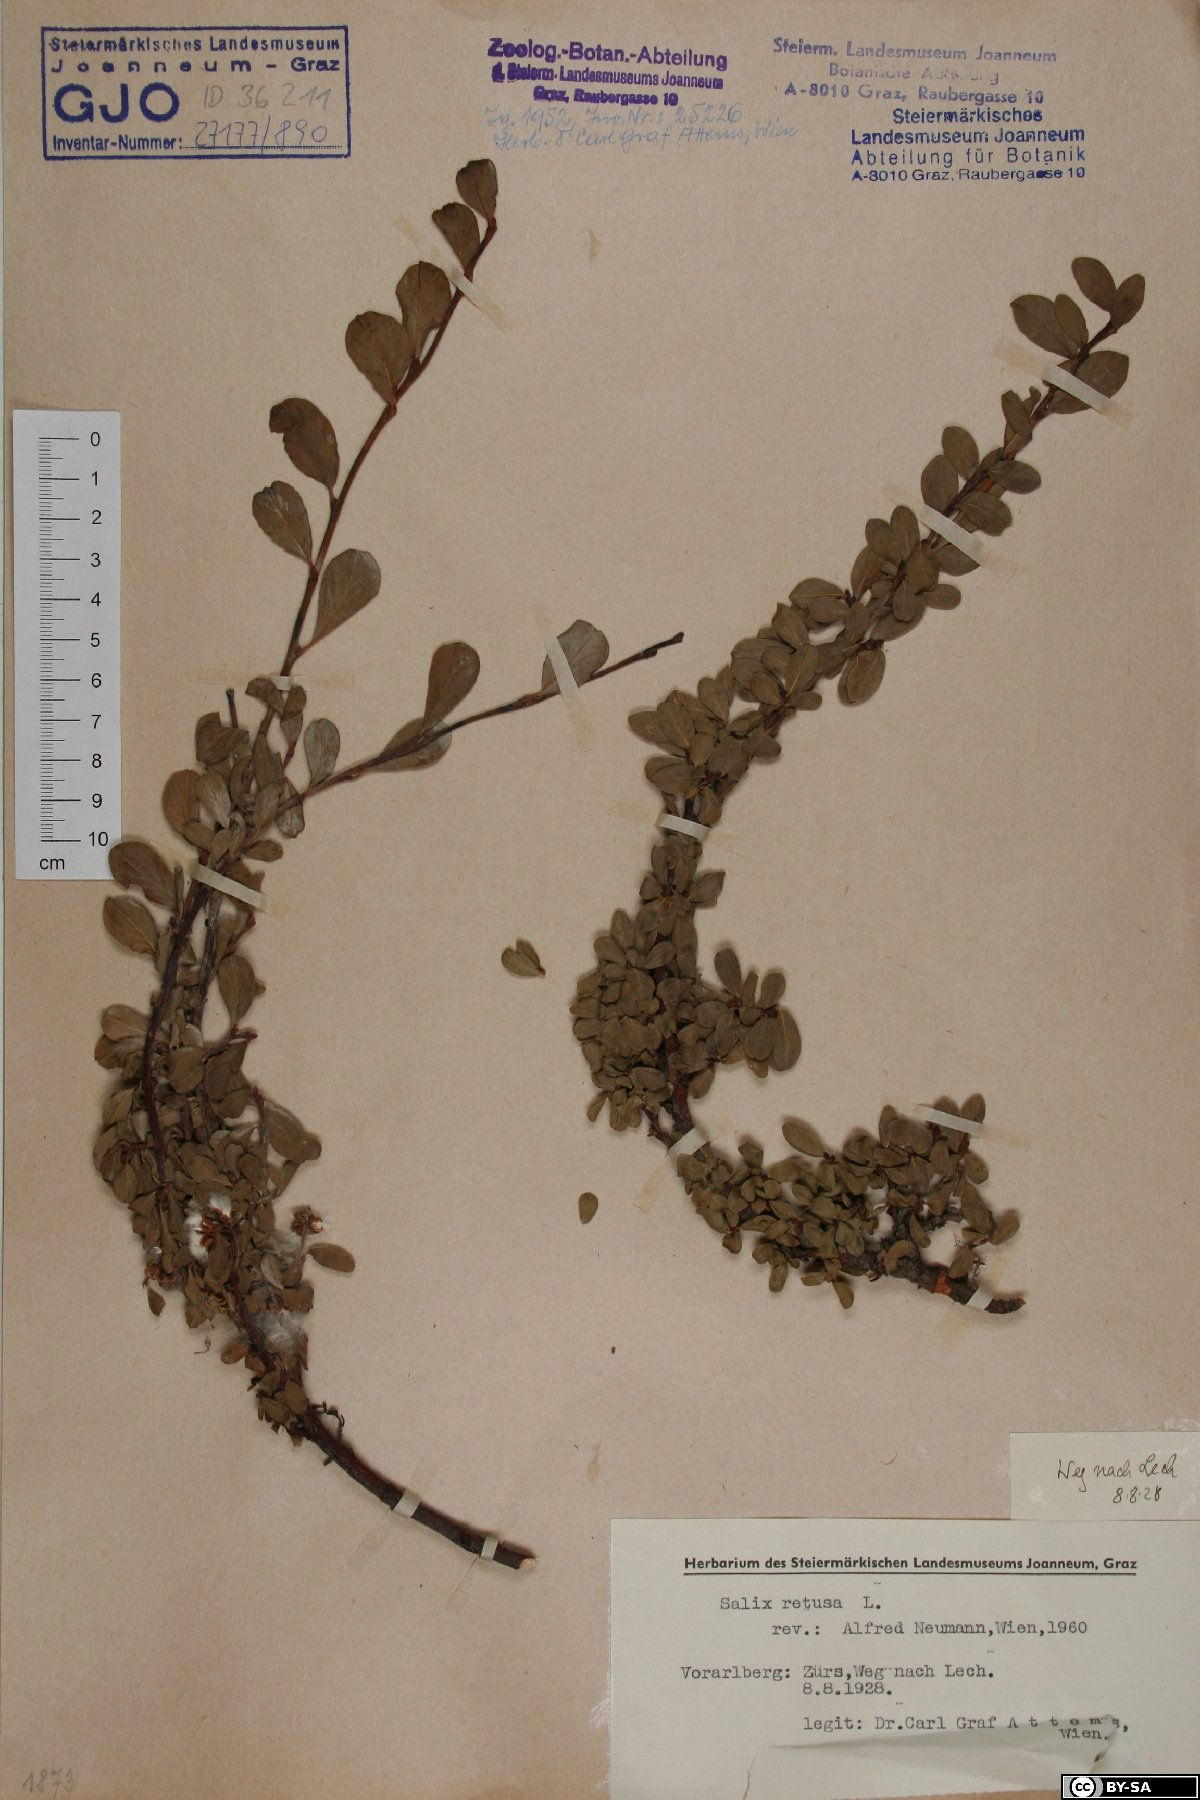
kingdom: Plantae
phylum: Tracheophyta
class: Magnoliopsida
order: Malpighiales
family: Salicaceae
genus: Salix
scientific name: Salix retusa
